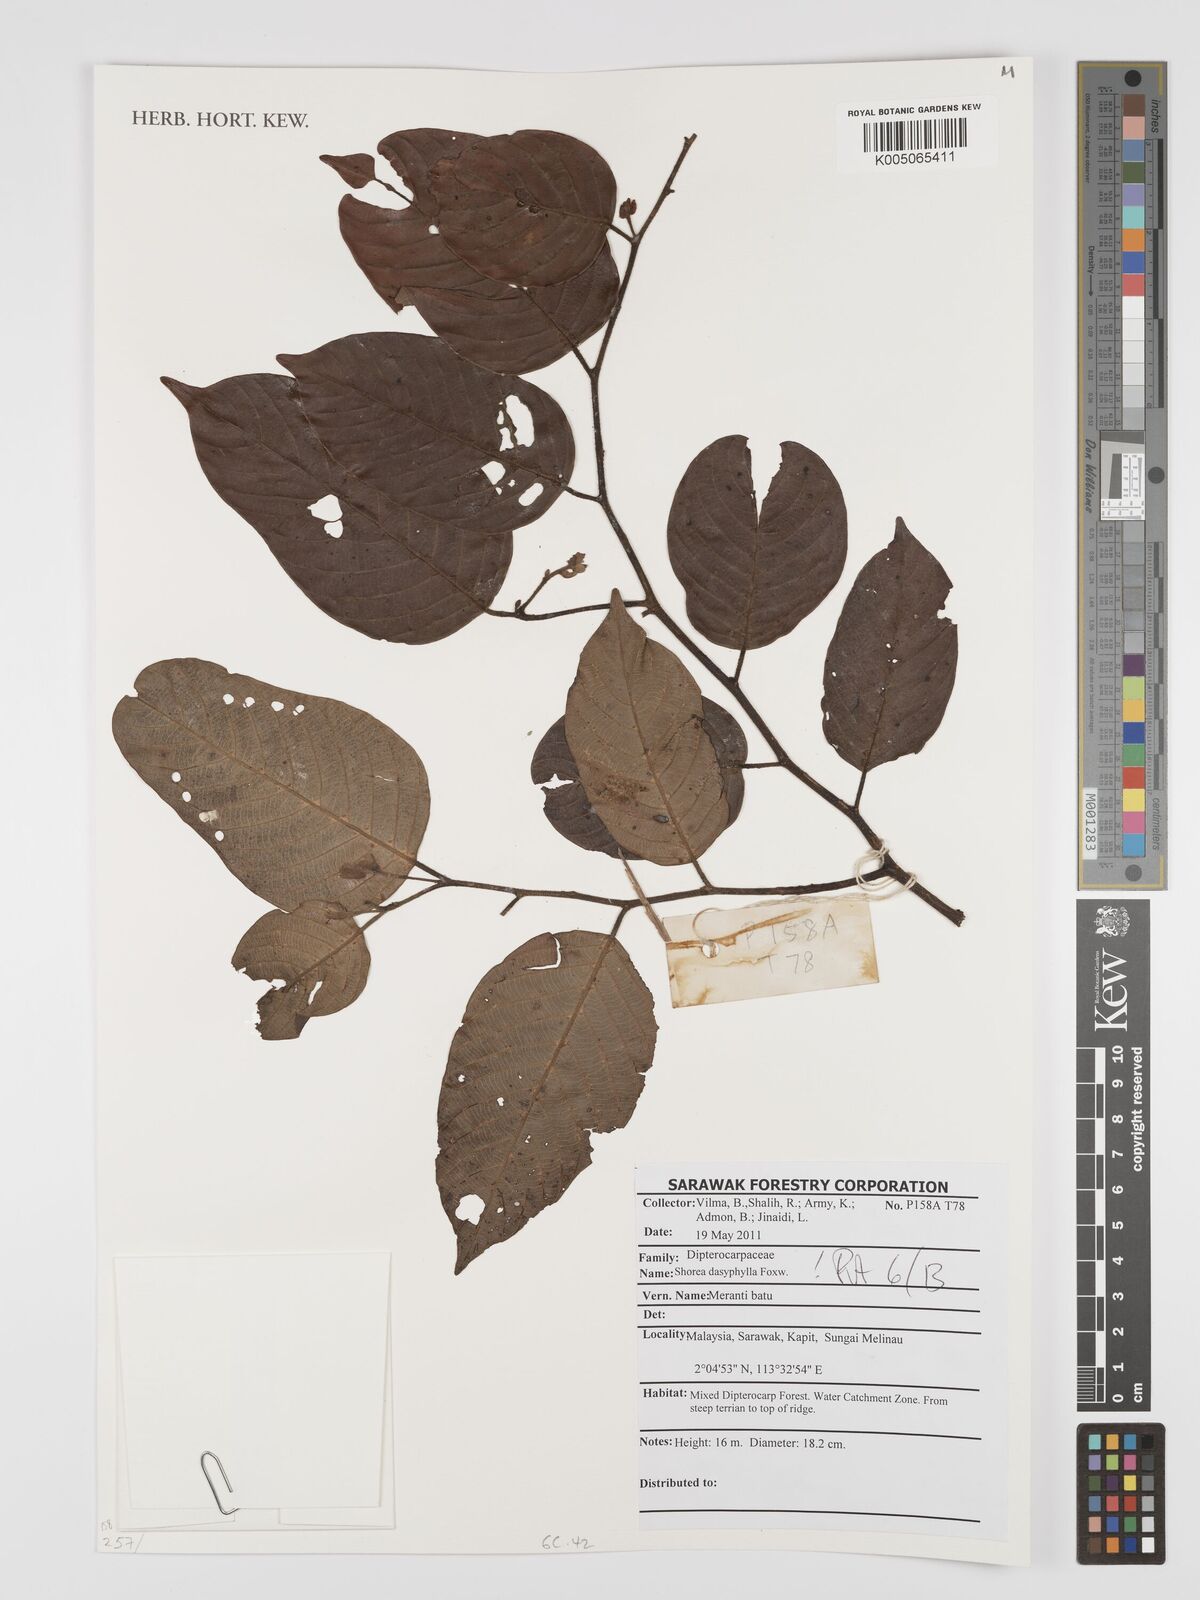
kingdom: Plantae
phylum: Tracheophyta
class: Magnoliopsida
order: Malvales
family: Dipterocarpaceae
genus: Shorea
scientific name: Shorea dasyphylla
